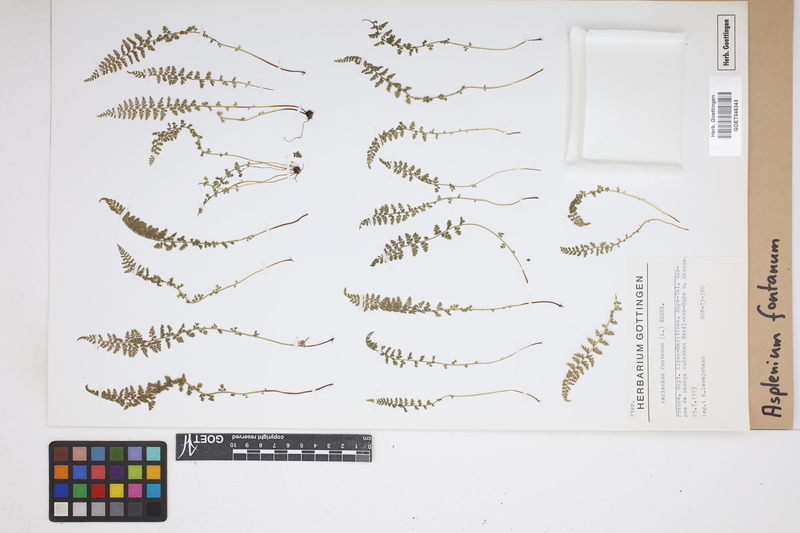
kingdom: Plantae
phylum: Tracheophyta
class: Polypodiopsida
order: Polypodiales
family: Aspleniaceae
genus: Asplenium
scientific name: Asplenium fontanum
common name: Fountain spleenwort
